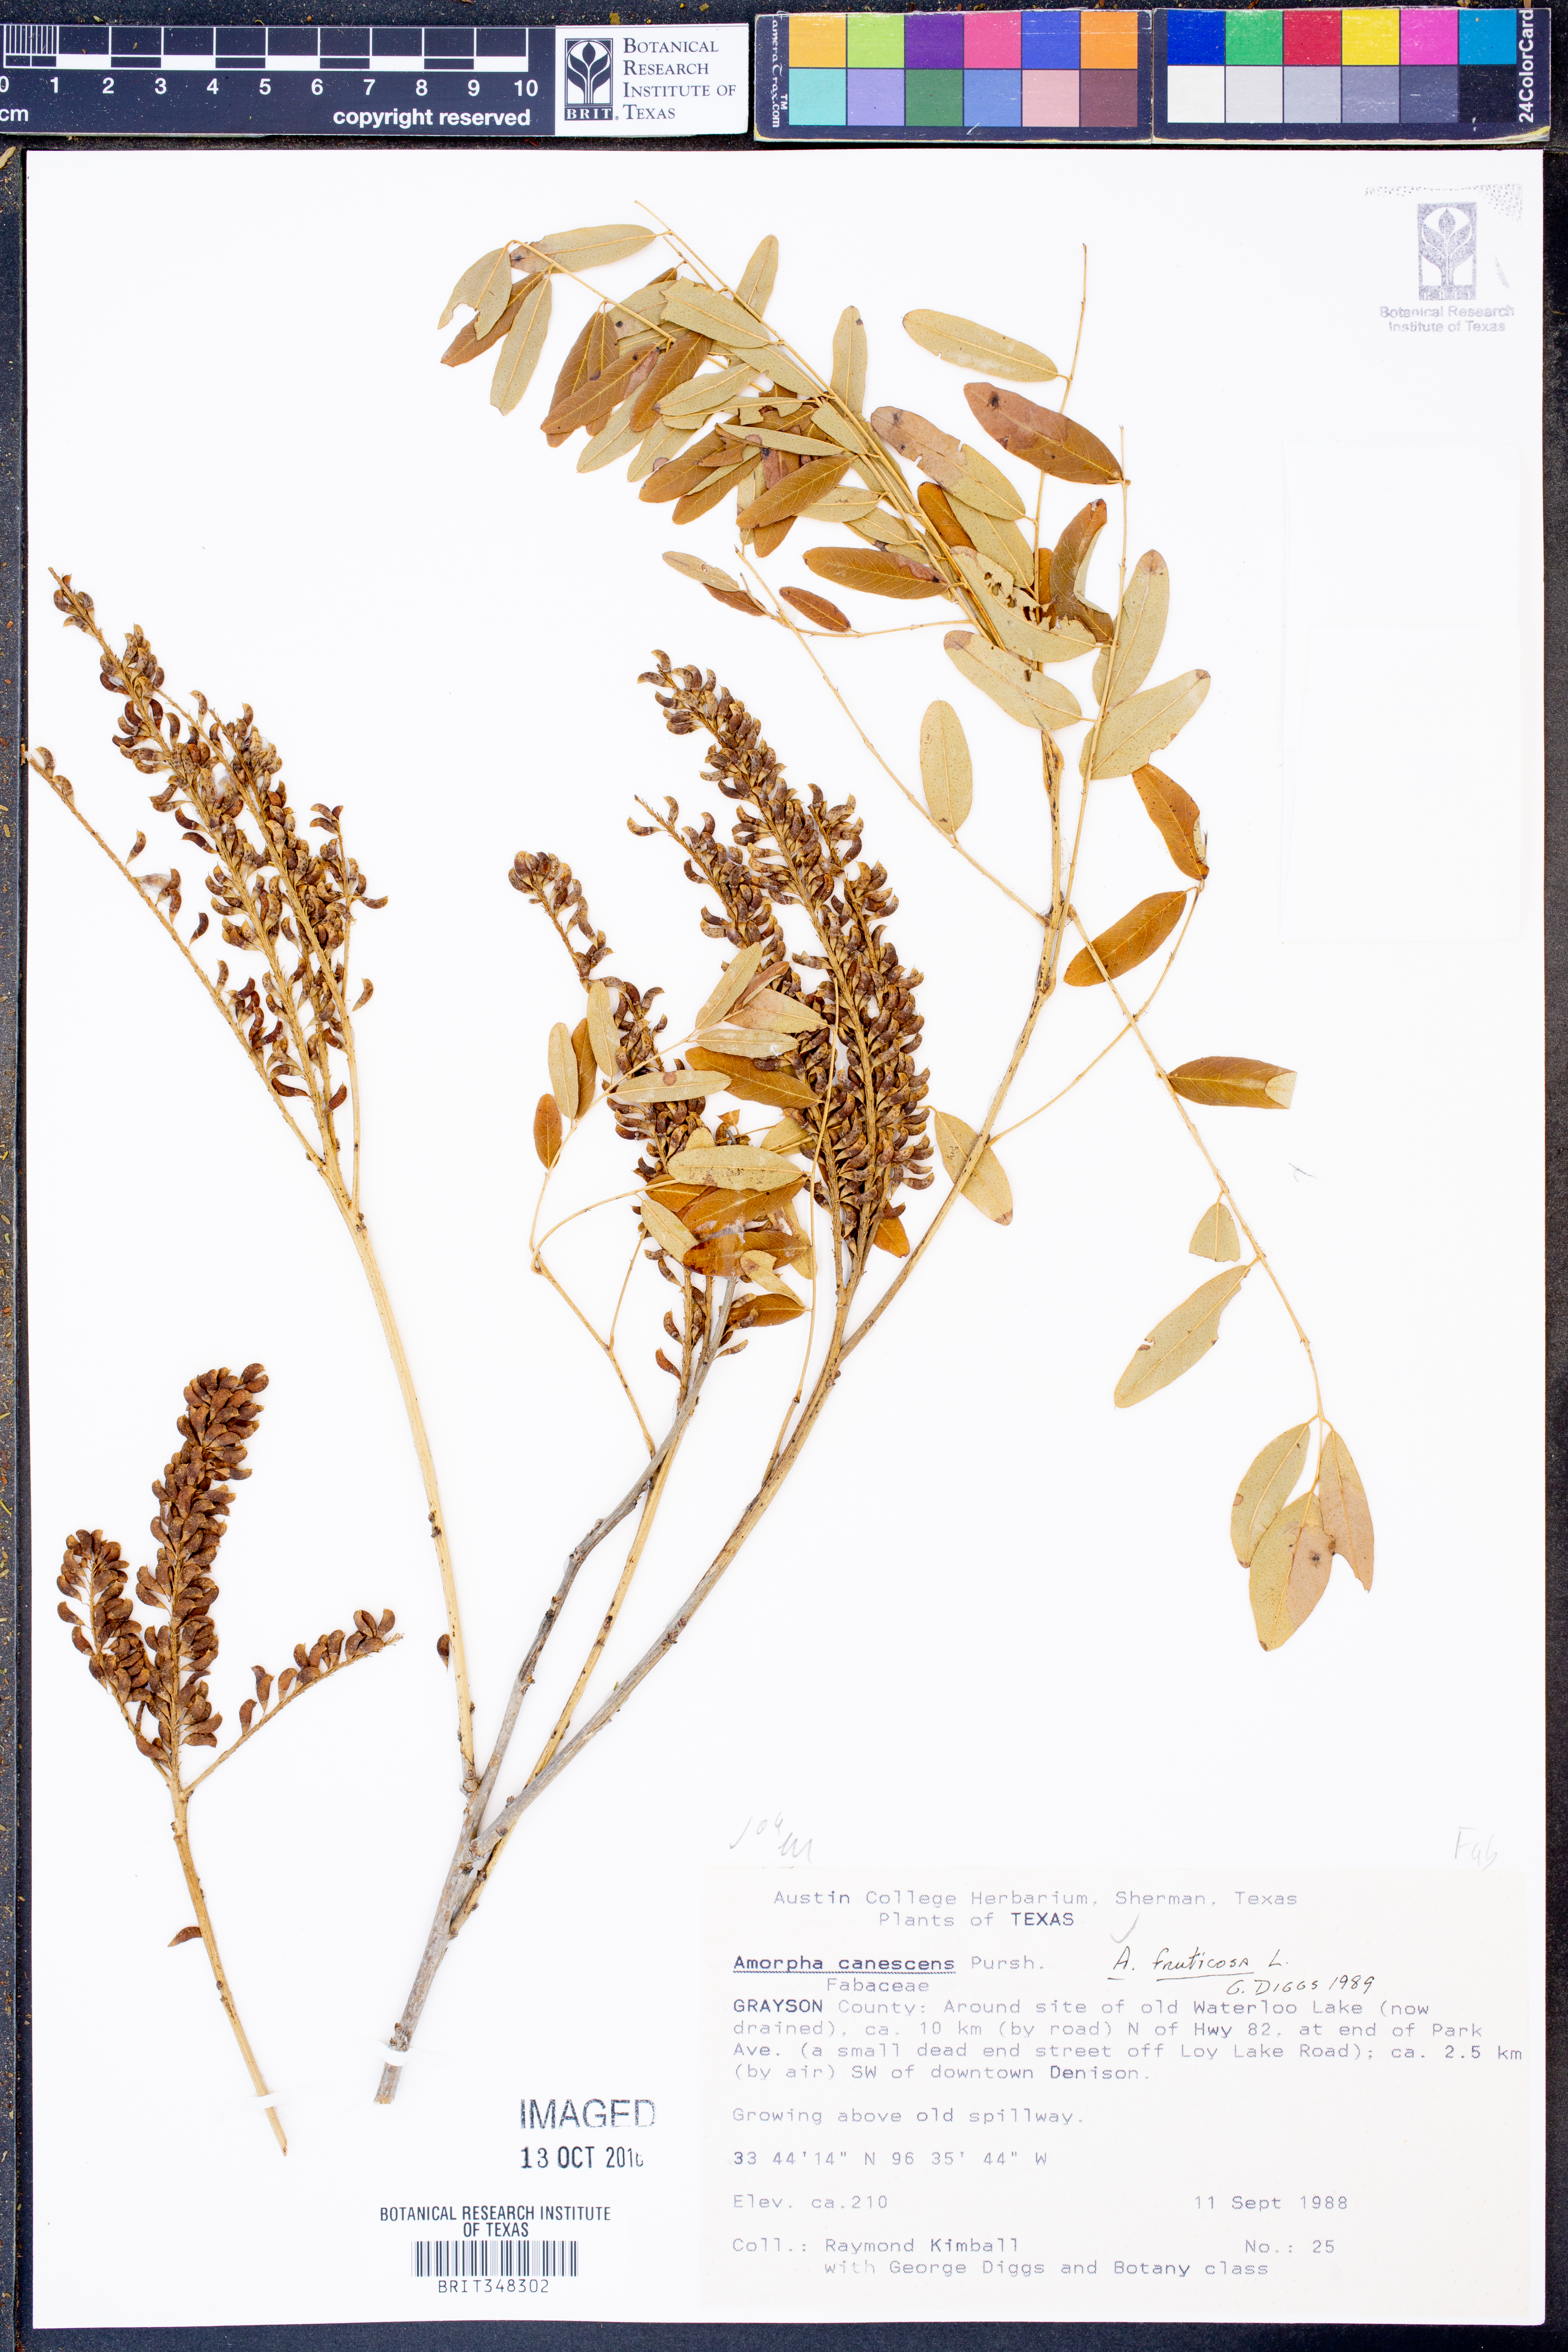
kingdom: Plantae
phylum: Tracheophyta
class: Magnoliopsida
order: Fabales
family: Fabaceae
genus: Amorpha
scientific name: Amorpha fruticosa
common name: False indigo
